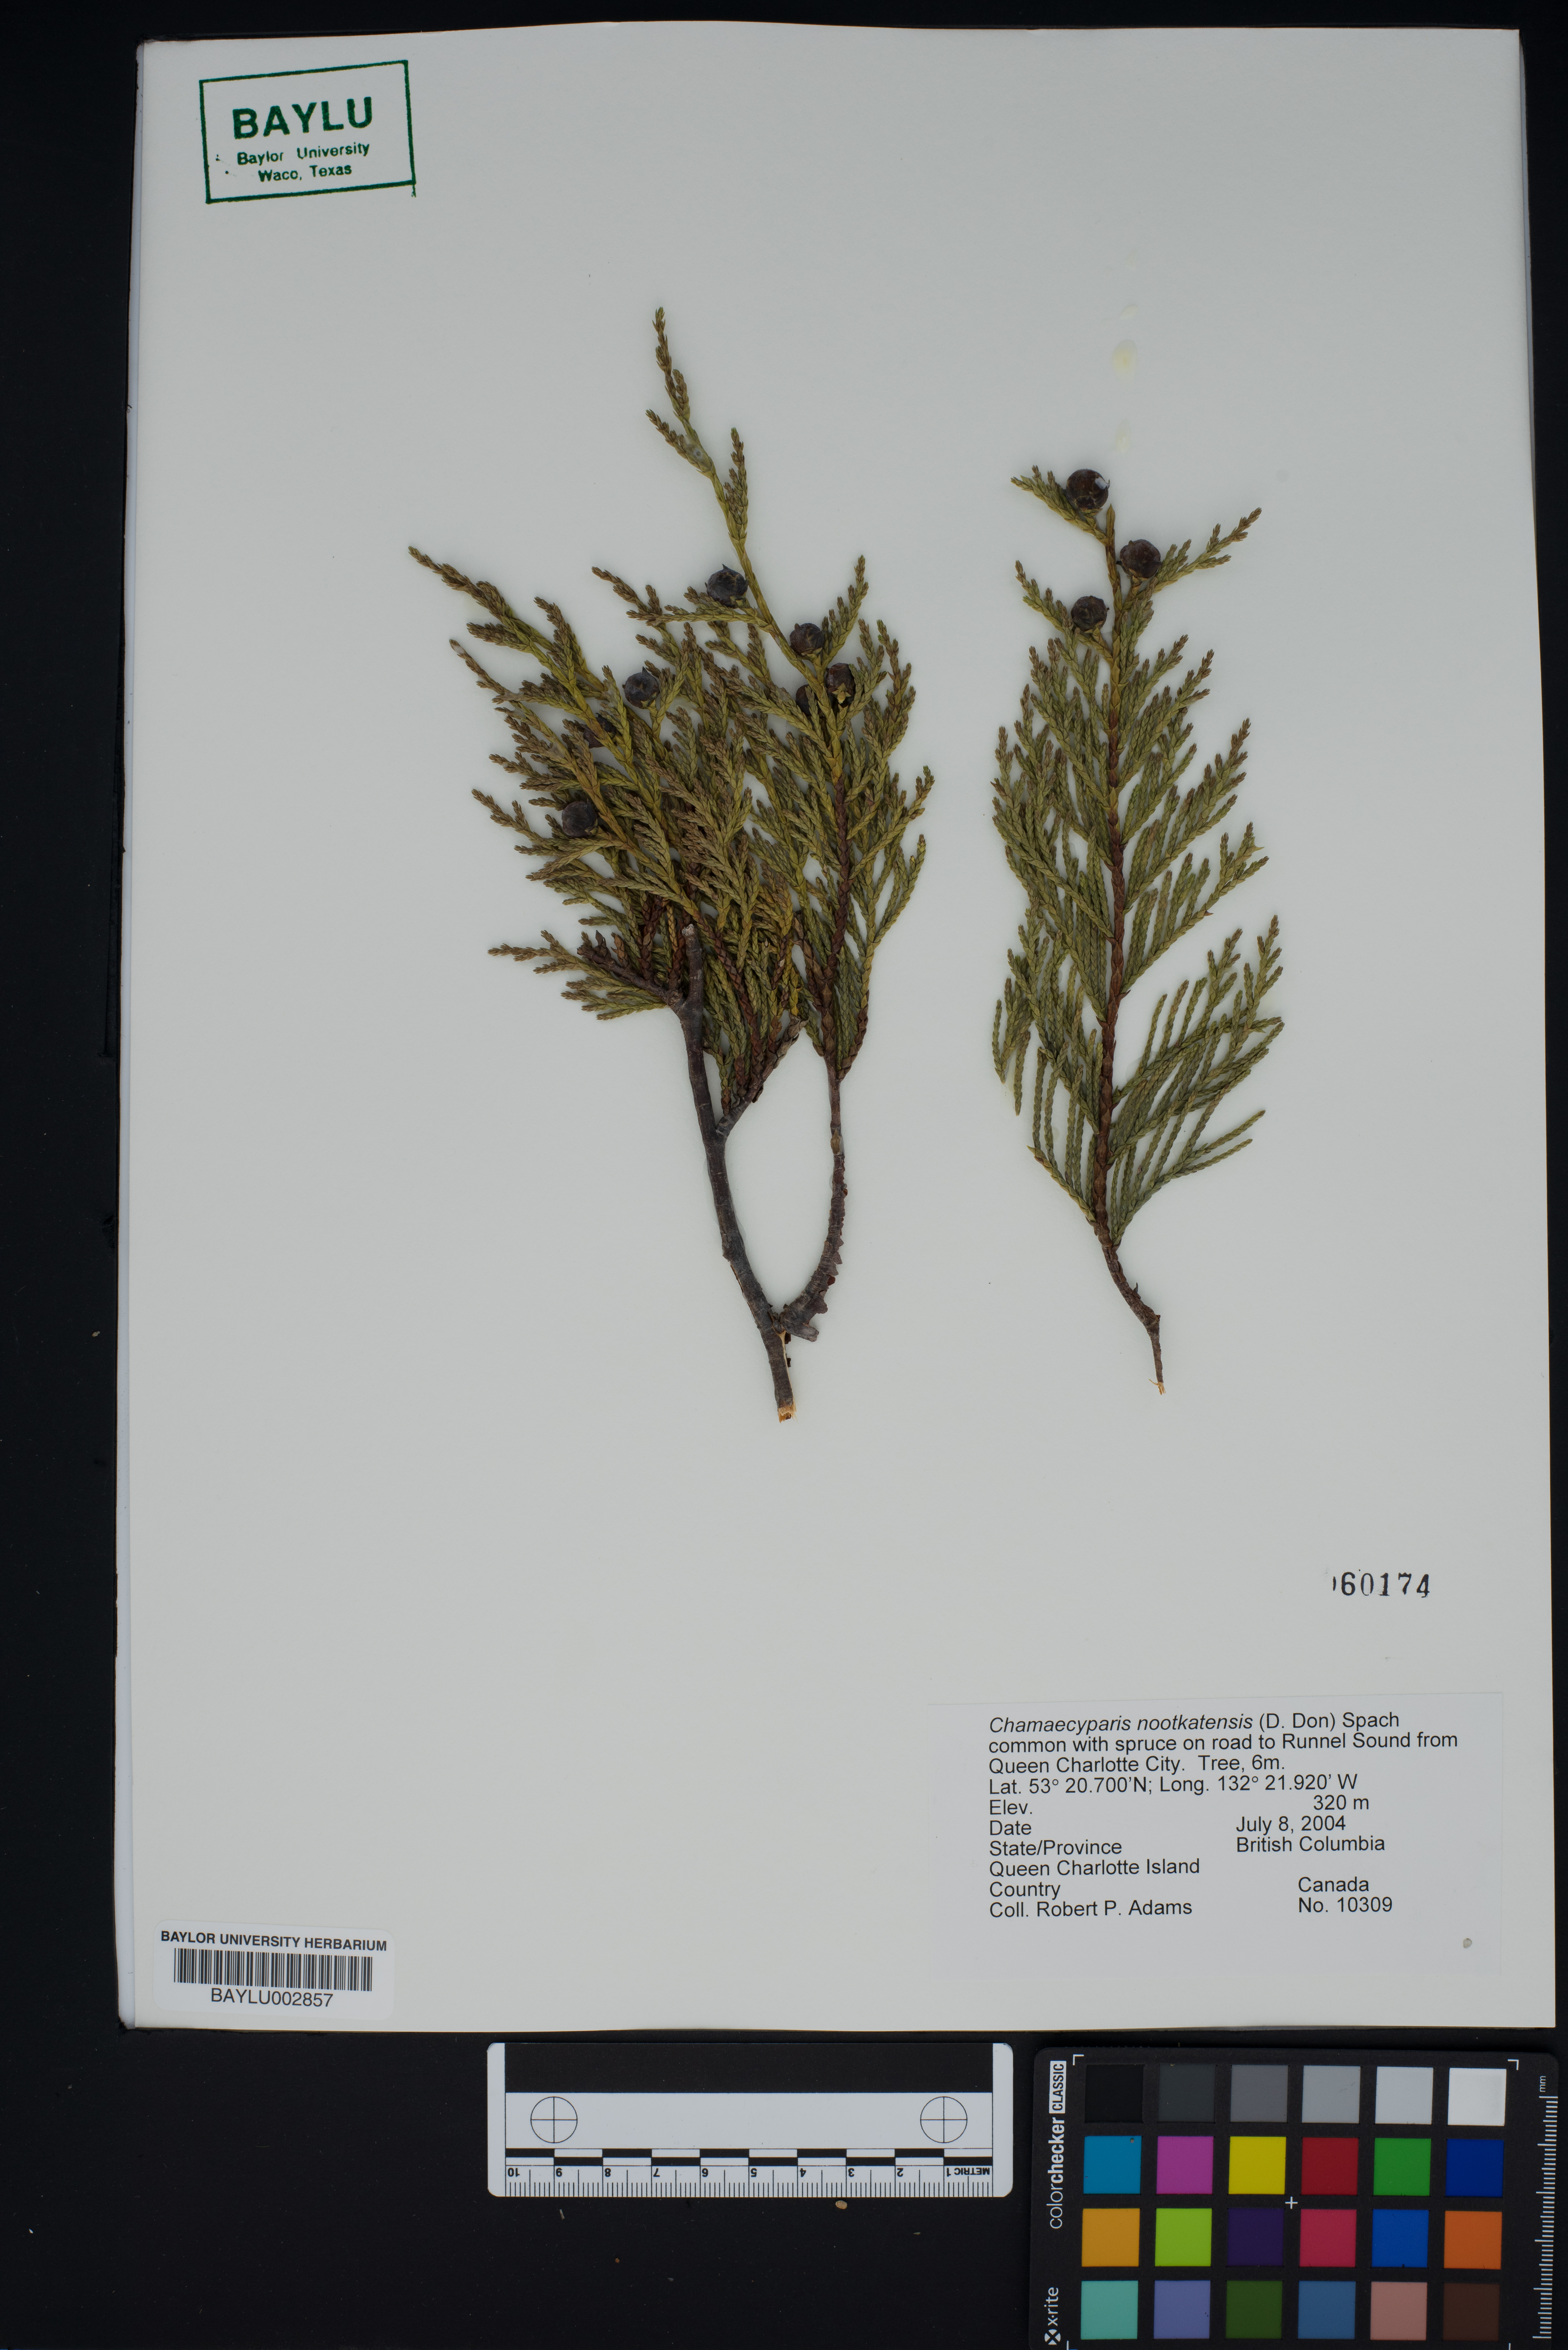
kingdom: Plantae
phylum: Tracheophyta
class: Pinopsida
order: Pinales
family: Cupressaceae
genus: Xanthocyparis
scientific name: Xanthocyparis nootkatensis
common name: Nootka cypress
